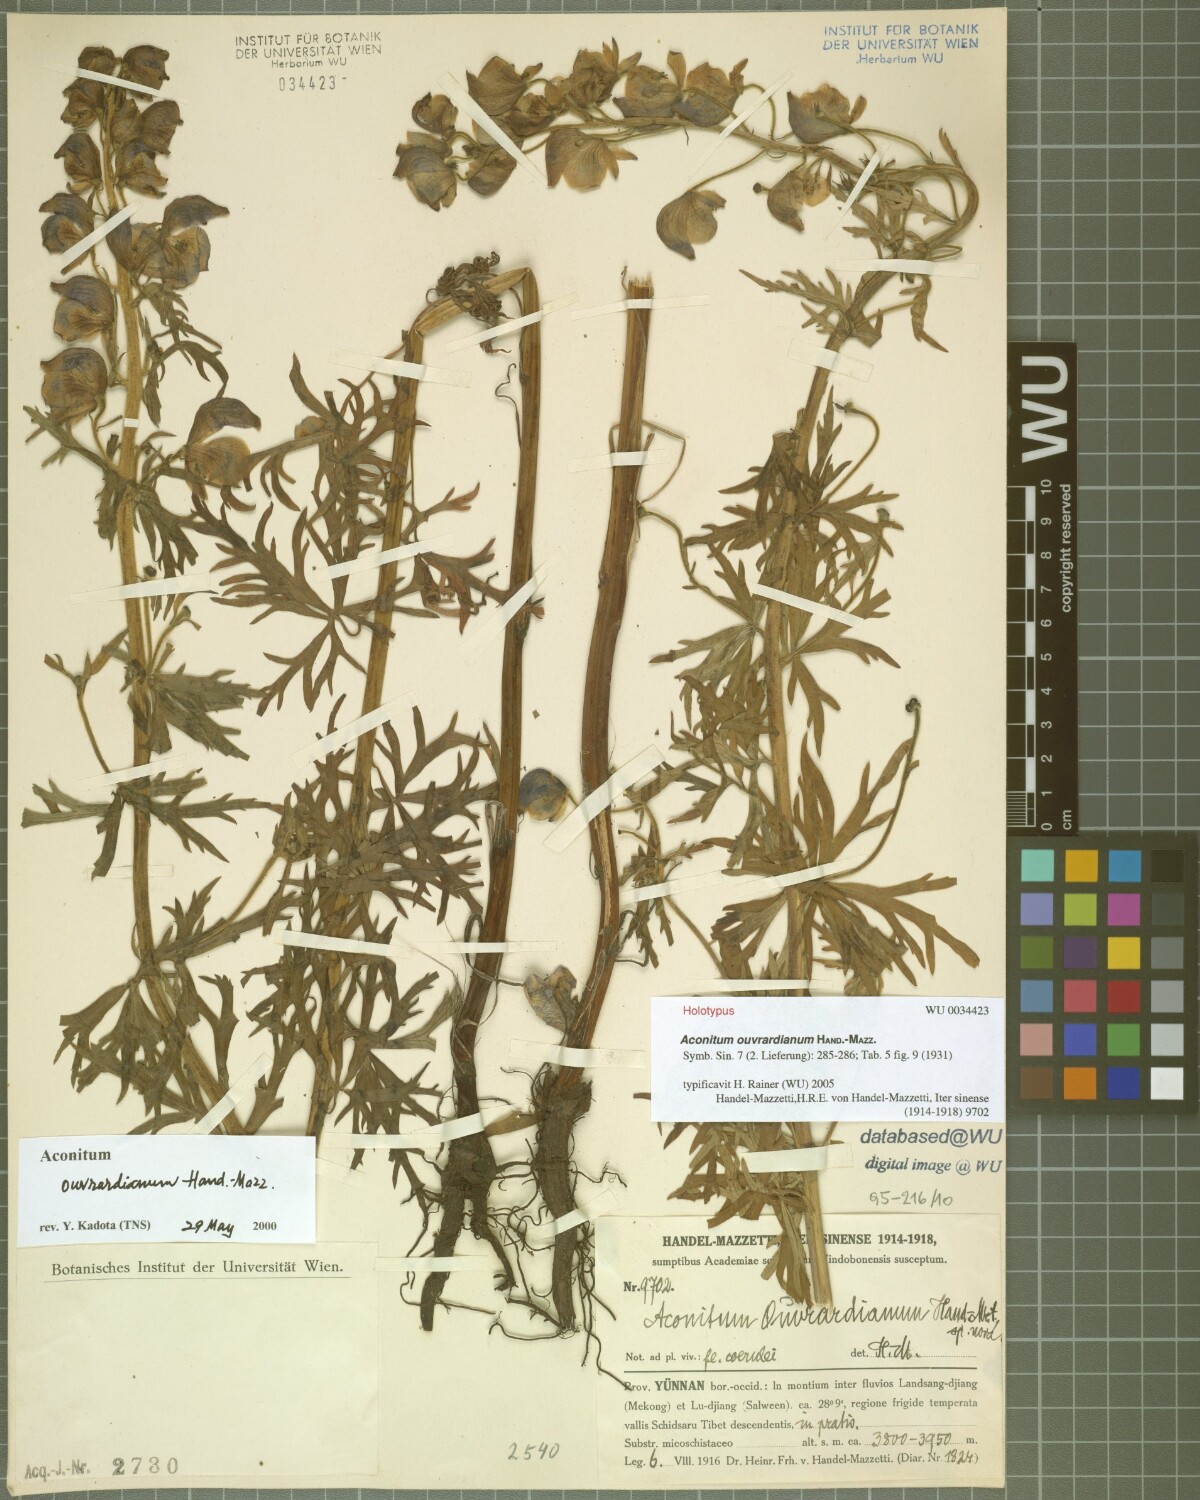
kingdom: Plantae
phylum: Tracheophyta
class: Magnoliopsida
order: Ranunculales
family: Ranunculaceae
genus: Aconitum
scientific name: Aconitum ouvrardianum
